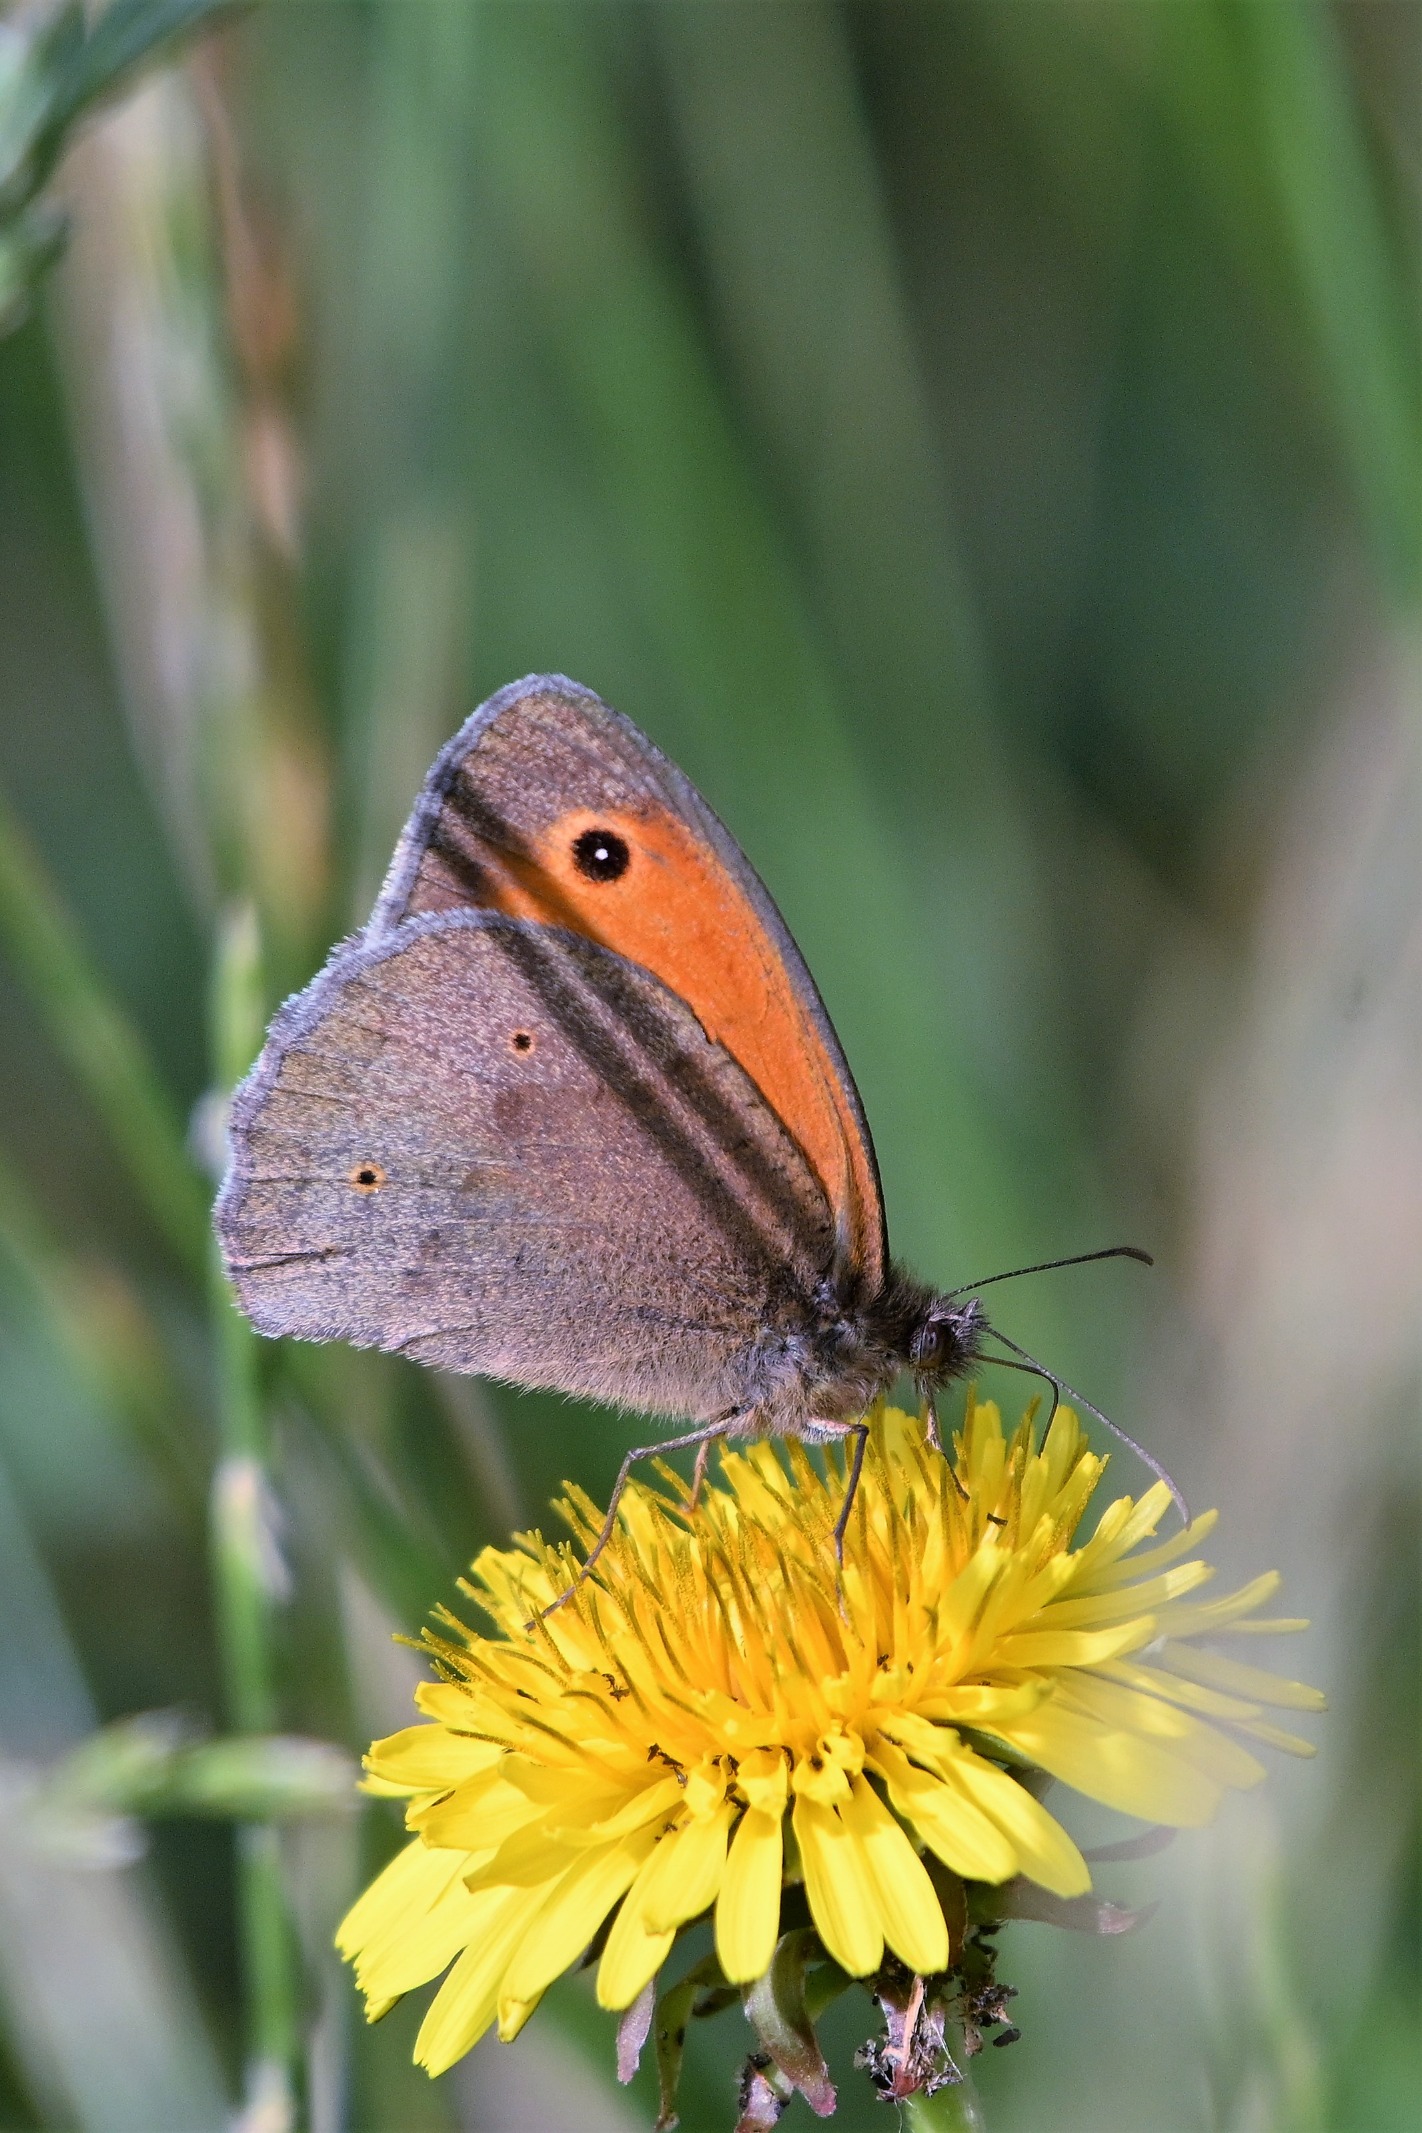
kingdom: Animalia
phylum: Arthropoda
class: Insecta
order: Lepidoptera
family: Nymphalidae
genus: Maniola
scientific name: Maniola jurtina
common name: Græsrandøje
